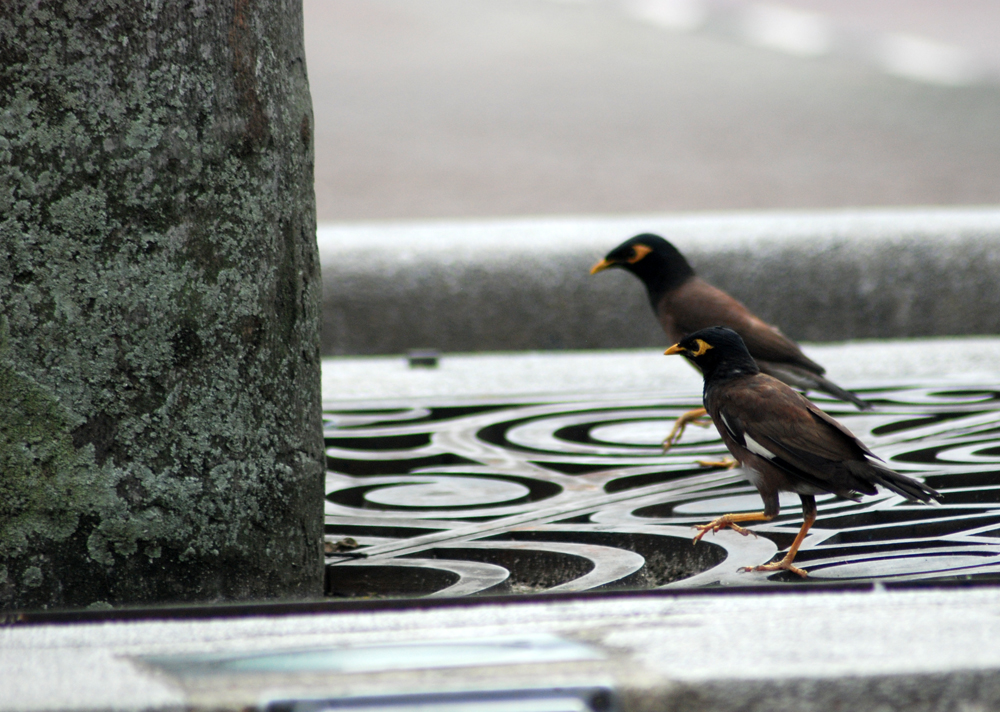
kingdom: Animalia
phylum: Chordata
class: Aves
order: Passeriformes
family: Sturnidae
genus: Acridotheres
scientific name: Acridotheres tristis
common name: Common myna
